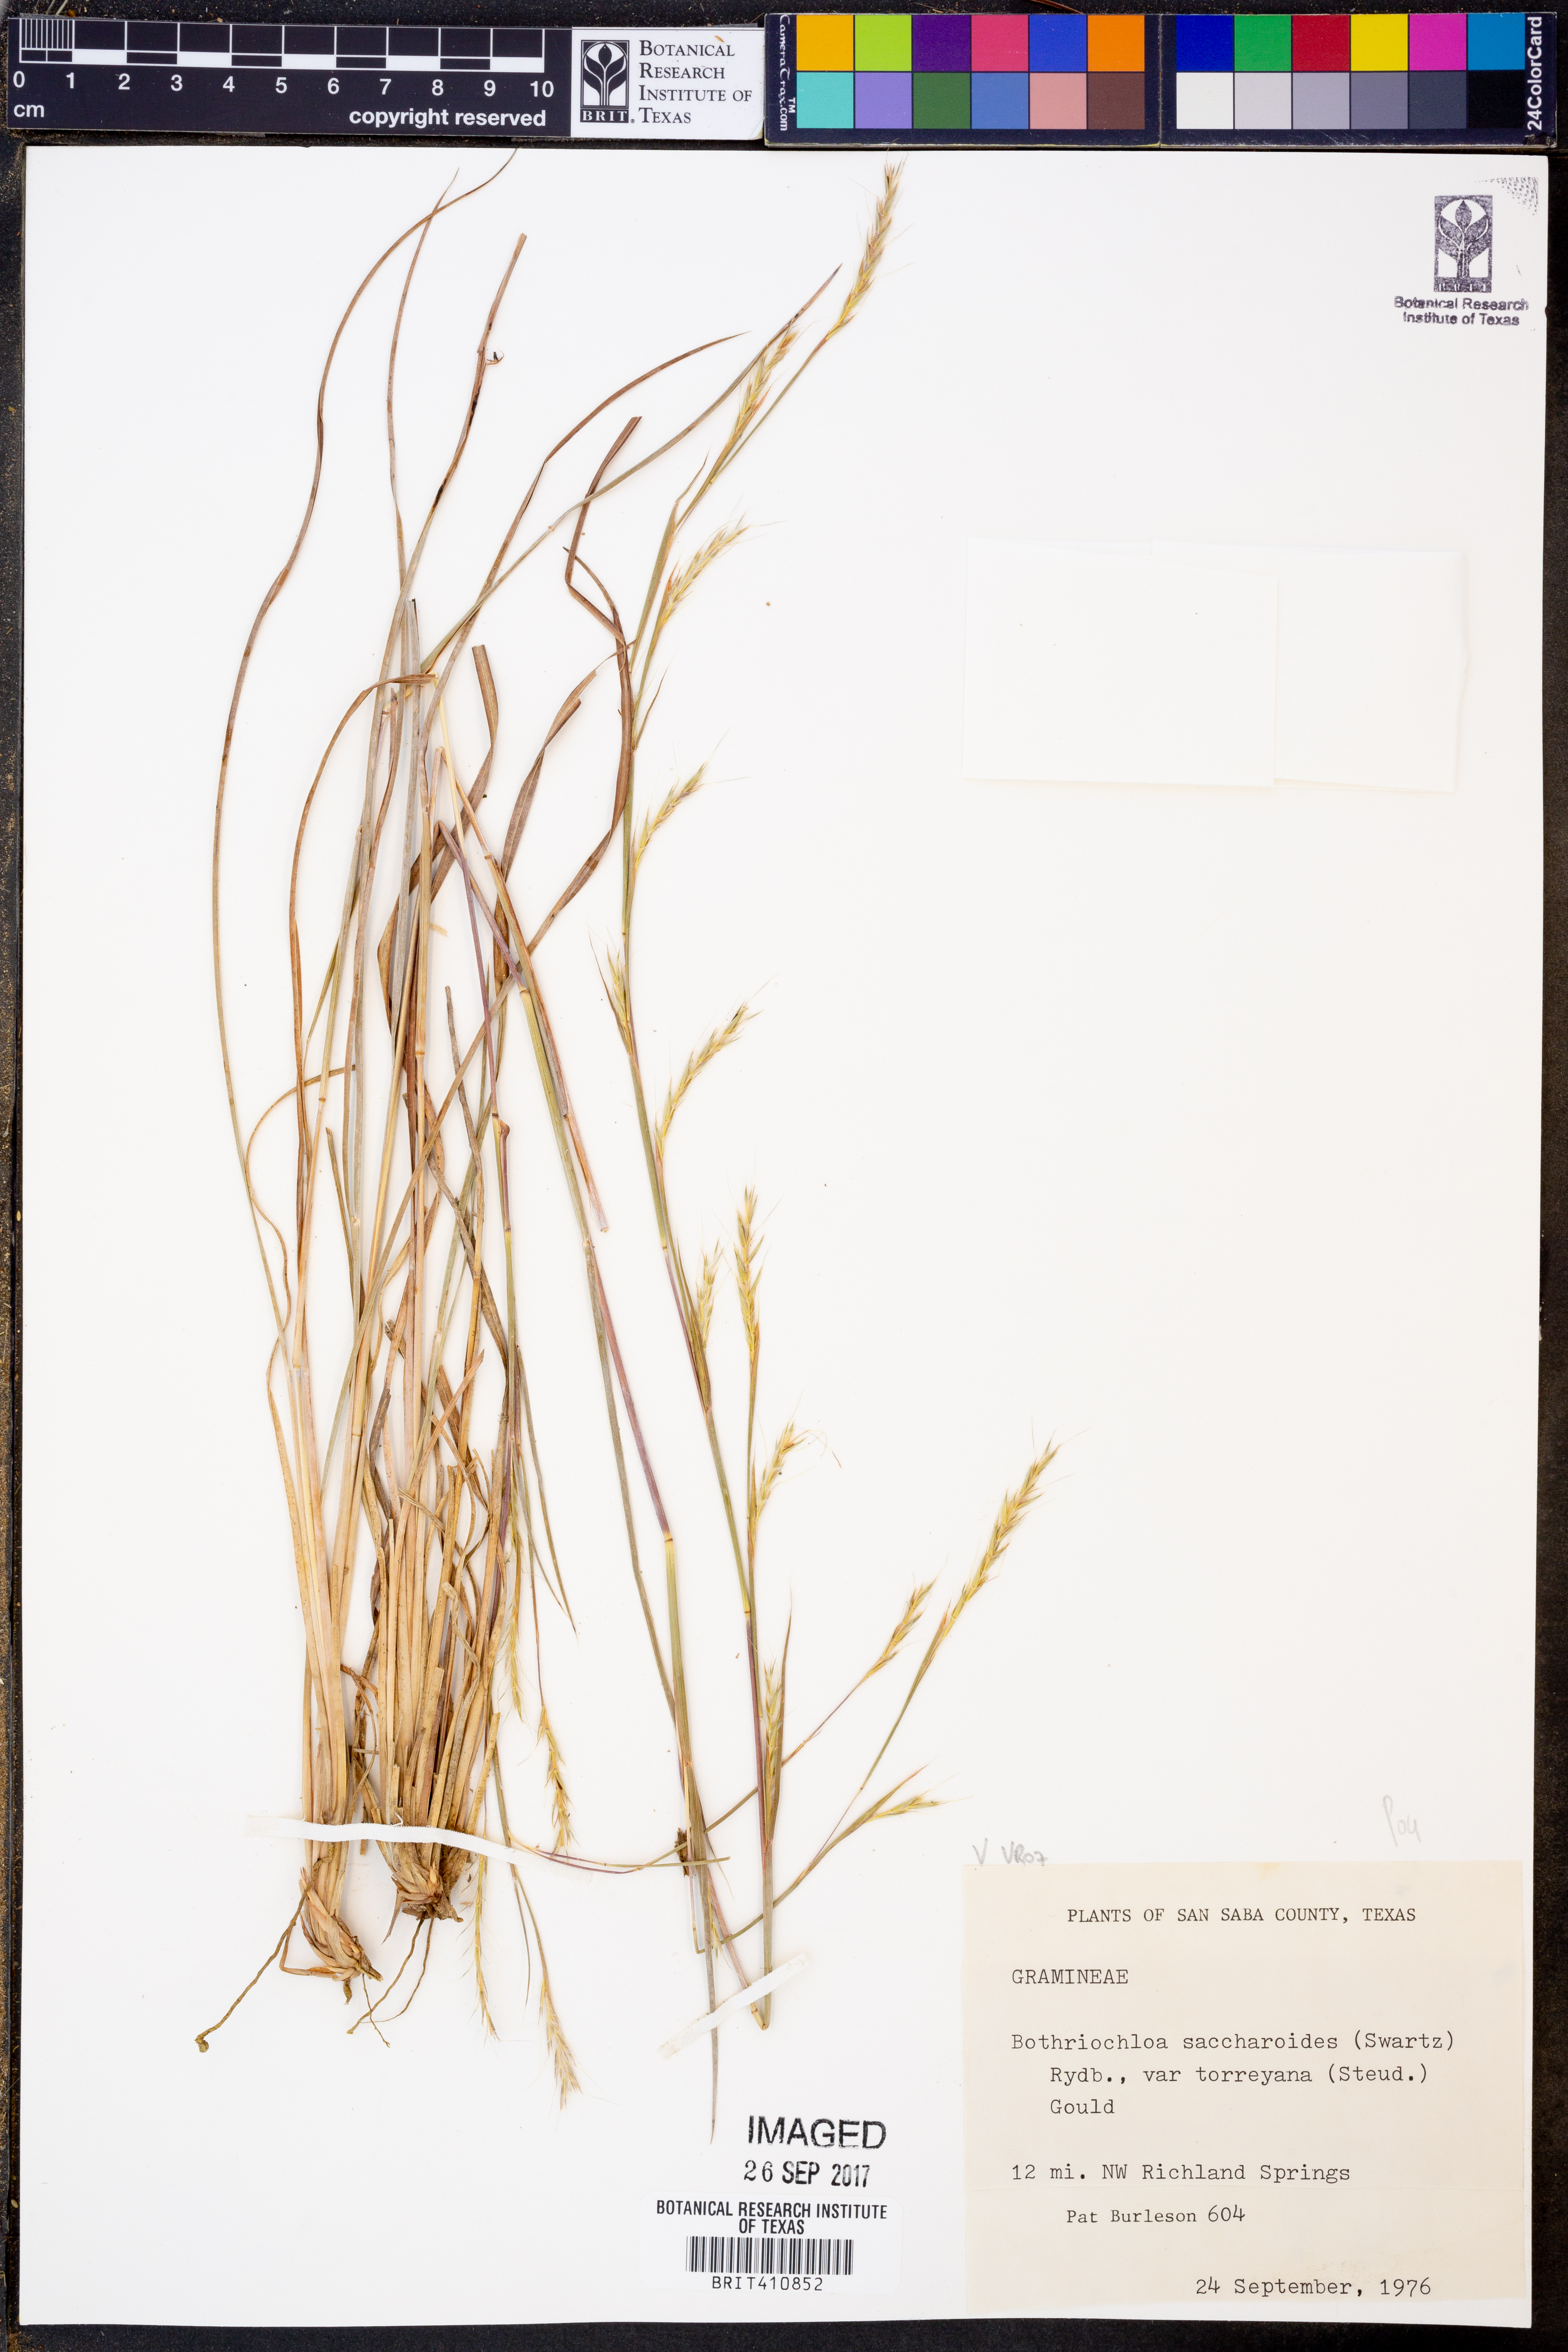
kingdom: Plantae
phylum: Tracheophyta
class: Liliopsida
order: Poales
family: Poaceae
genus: Bothriochloa
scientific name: Bothriochloa torreyana
